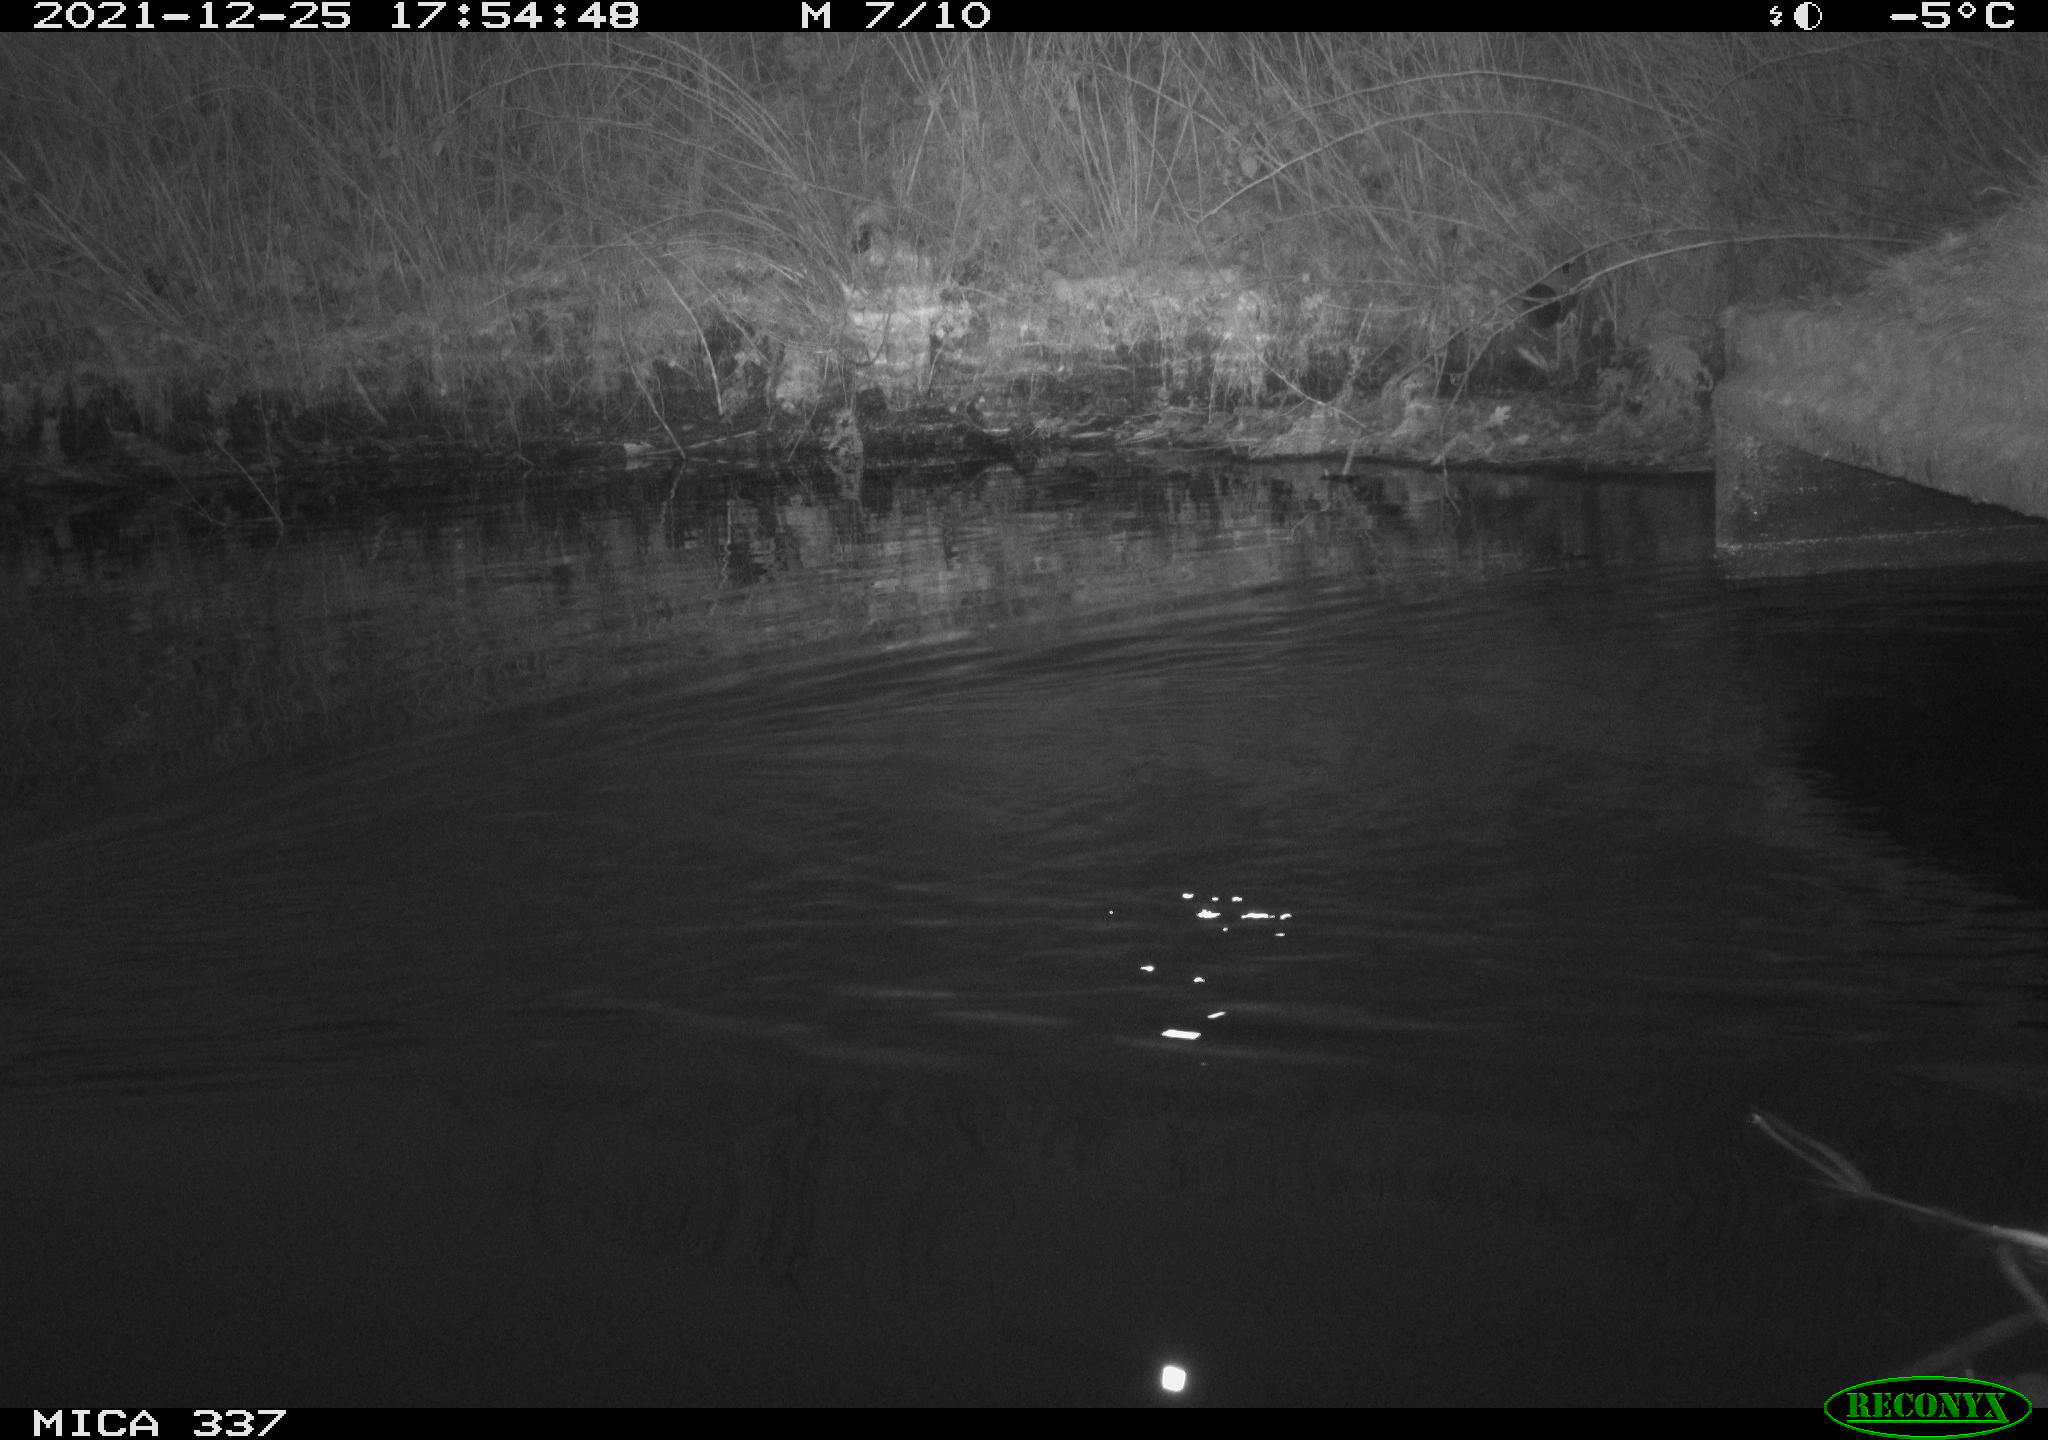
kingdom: Animalia
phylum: Chordata
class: Aves
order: Anseriformes
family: Anatidae
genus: Anas
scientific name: Anas platyrhynchos
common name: Mallard
